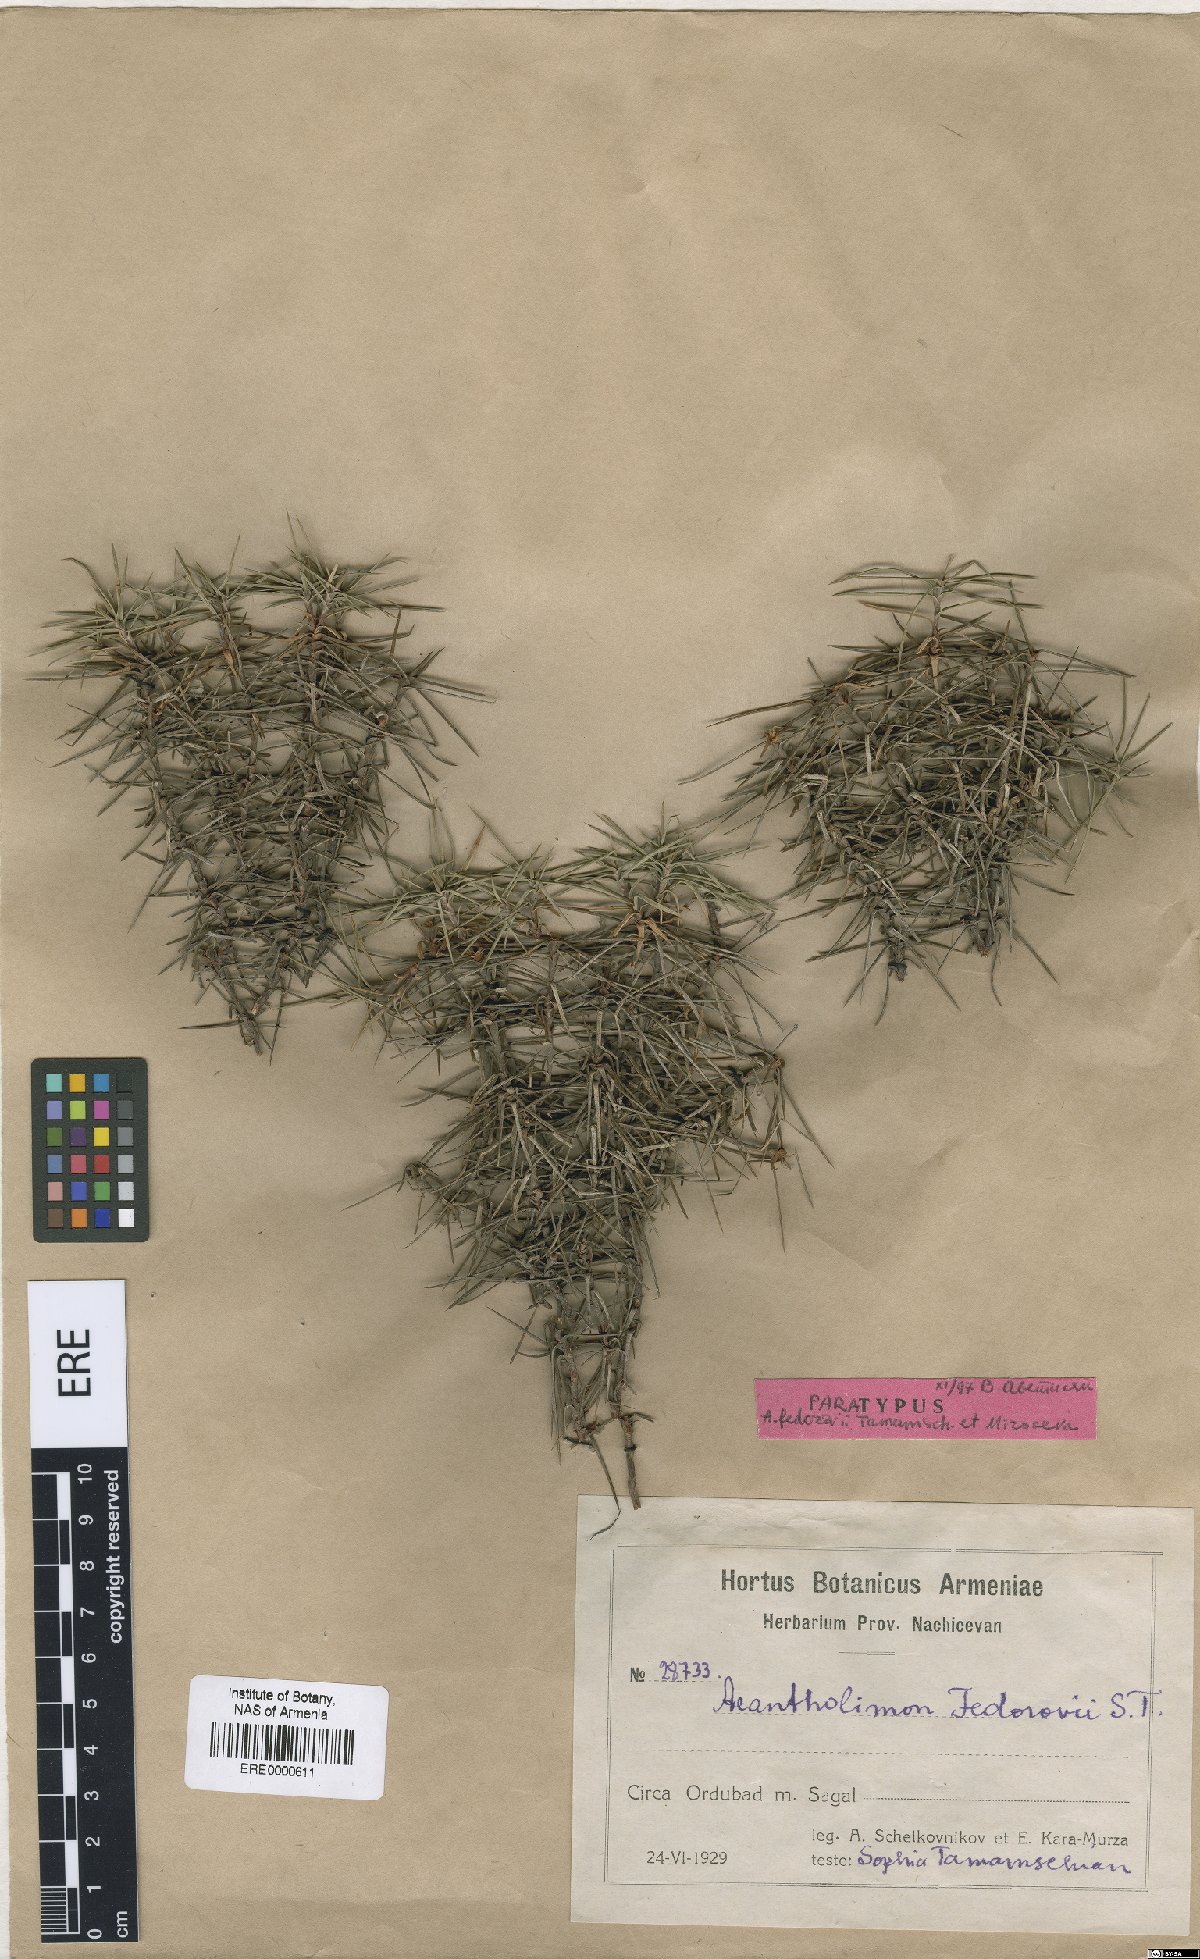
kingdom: Plantae
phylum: Tracheophyta
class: Magnoliopsida
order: Caryophyllales
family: Plumbaginaceae
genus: Acantholimon
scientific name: Acantholimon fedorovii
